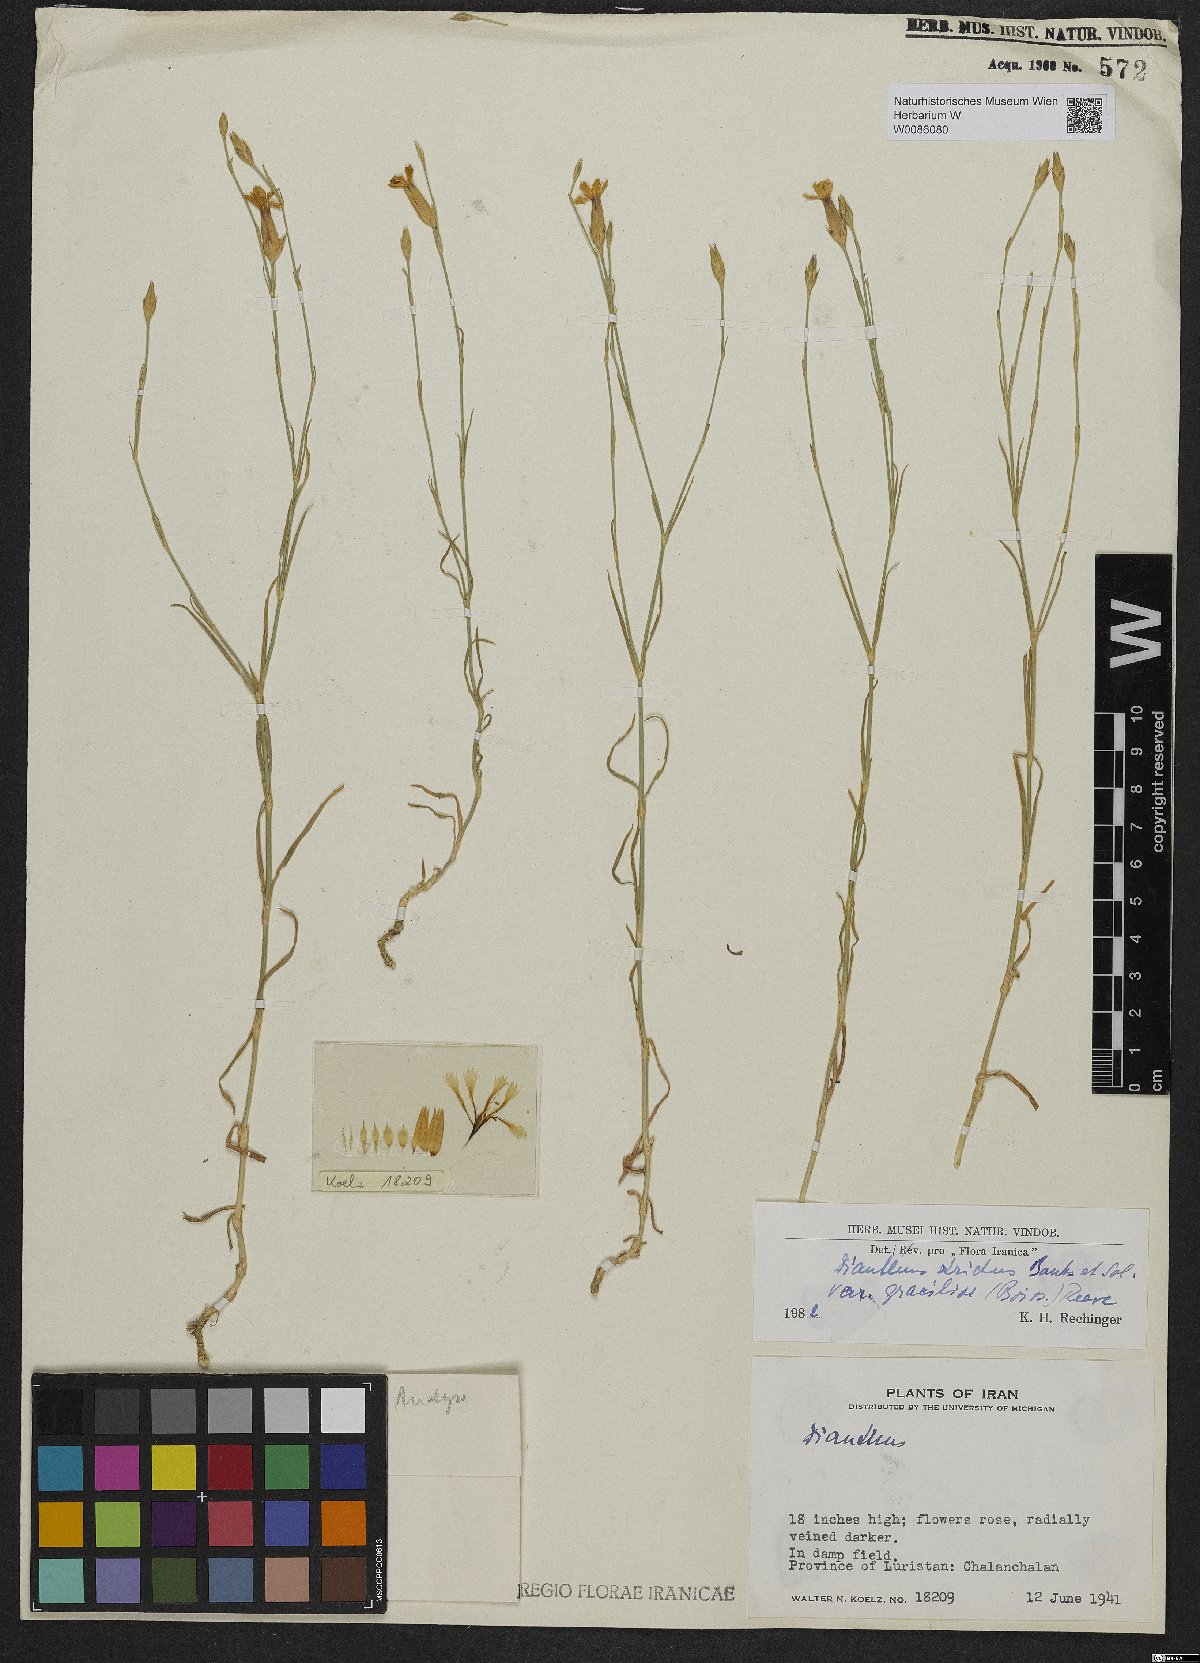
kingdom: Plantae
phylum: Tracheophyta
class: Magnoliopsida
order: Caryophyllales
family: Caryophyllaceae
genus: Dianthus
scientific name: Dianthus strictus
